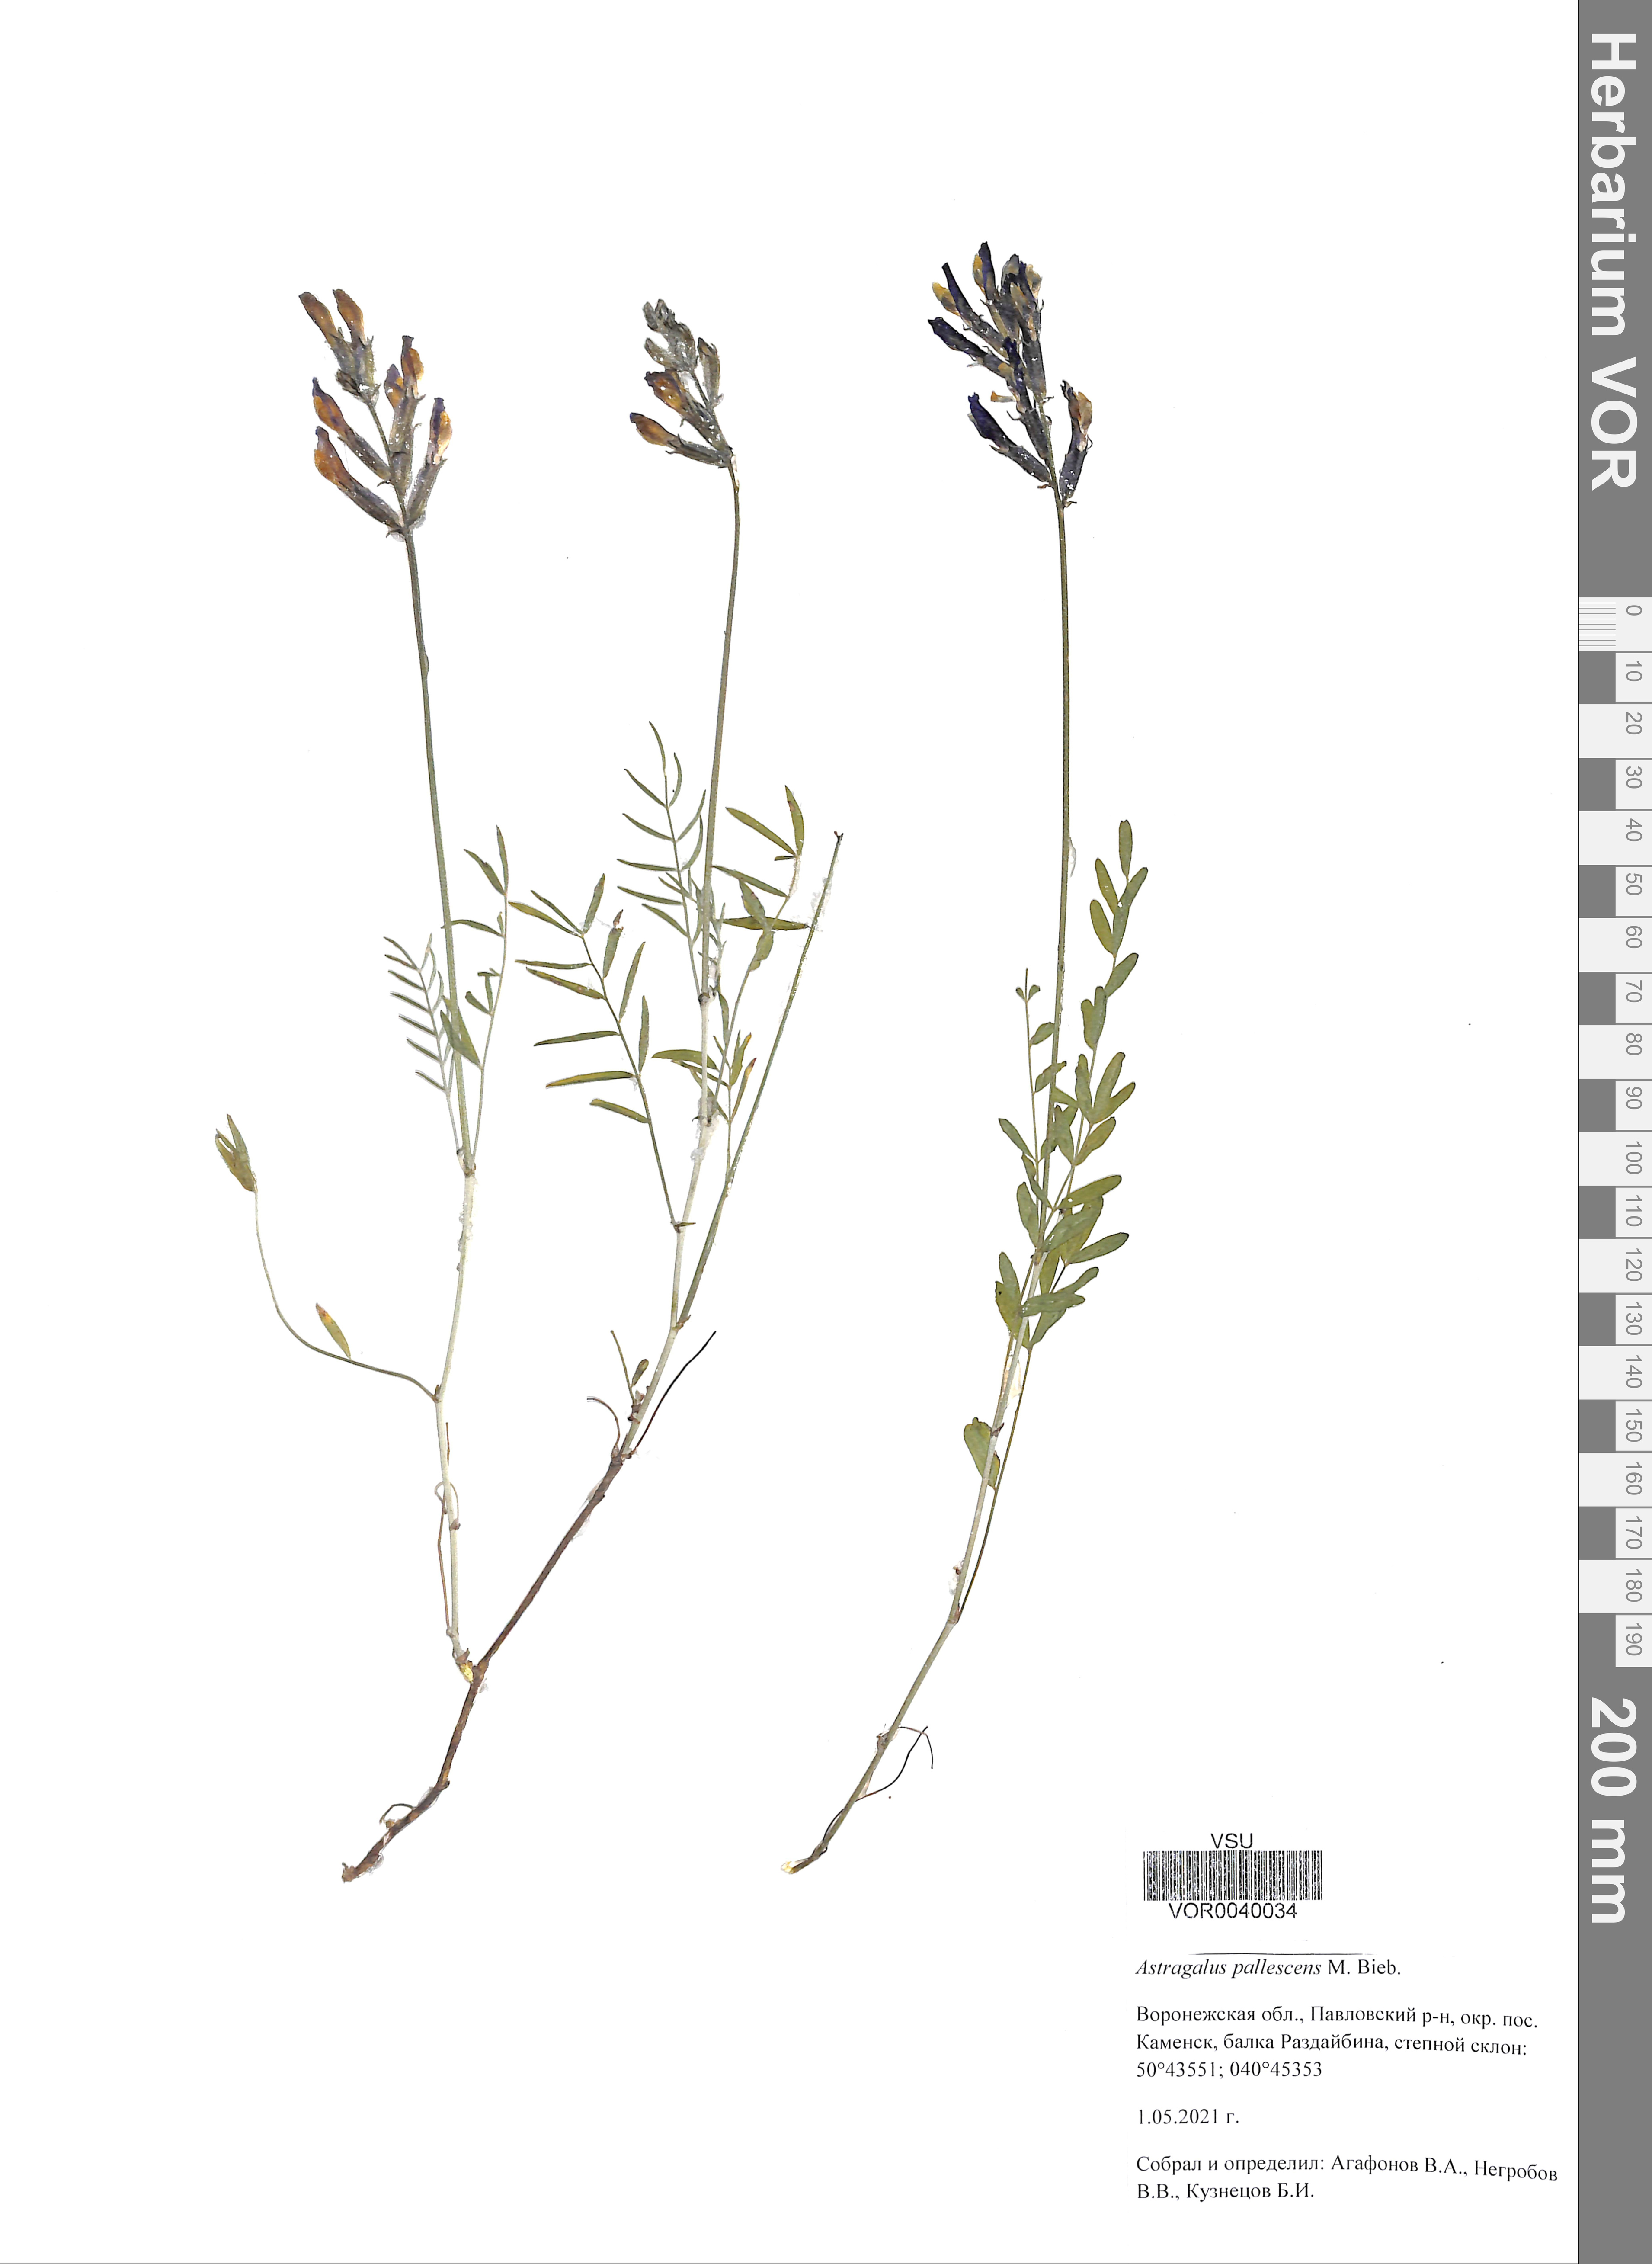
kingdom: Plantae
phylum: Tracheophyta
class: Magnoliopsida
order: Fabales
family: Fabaceae
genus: Astragalus
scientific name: Astragalus pallescens
